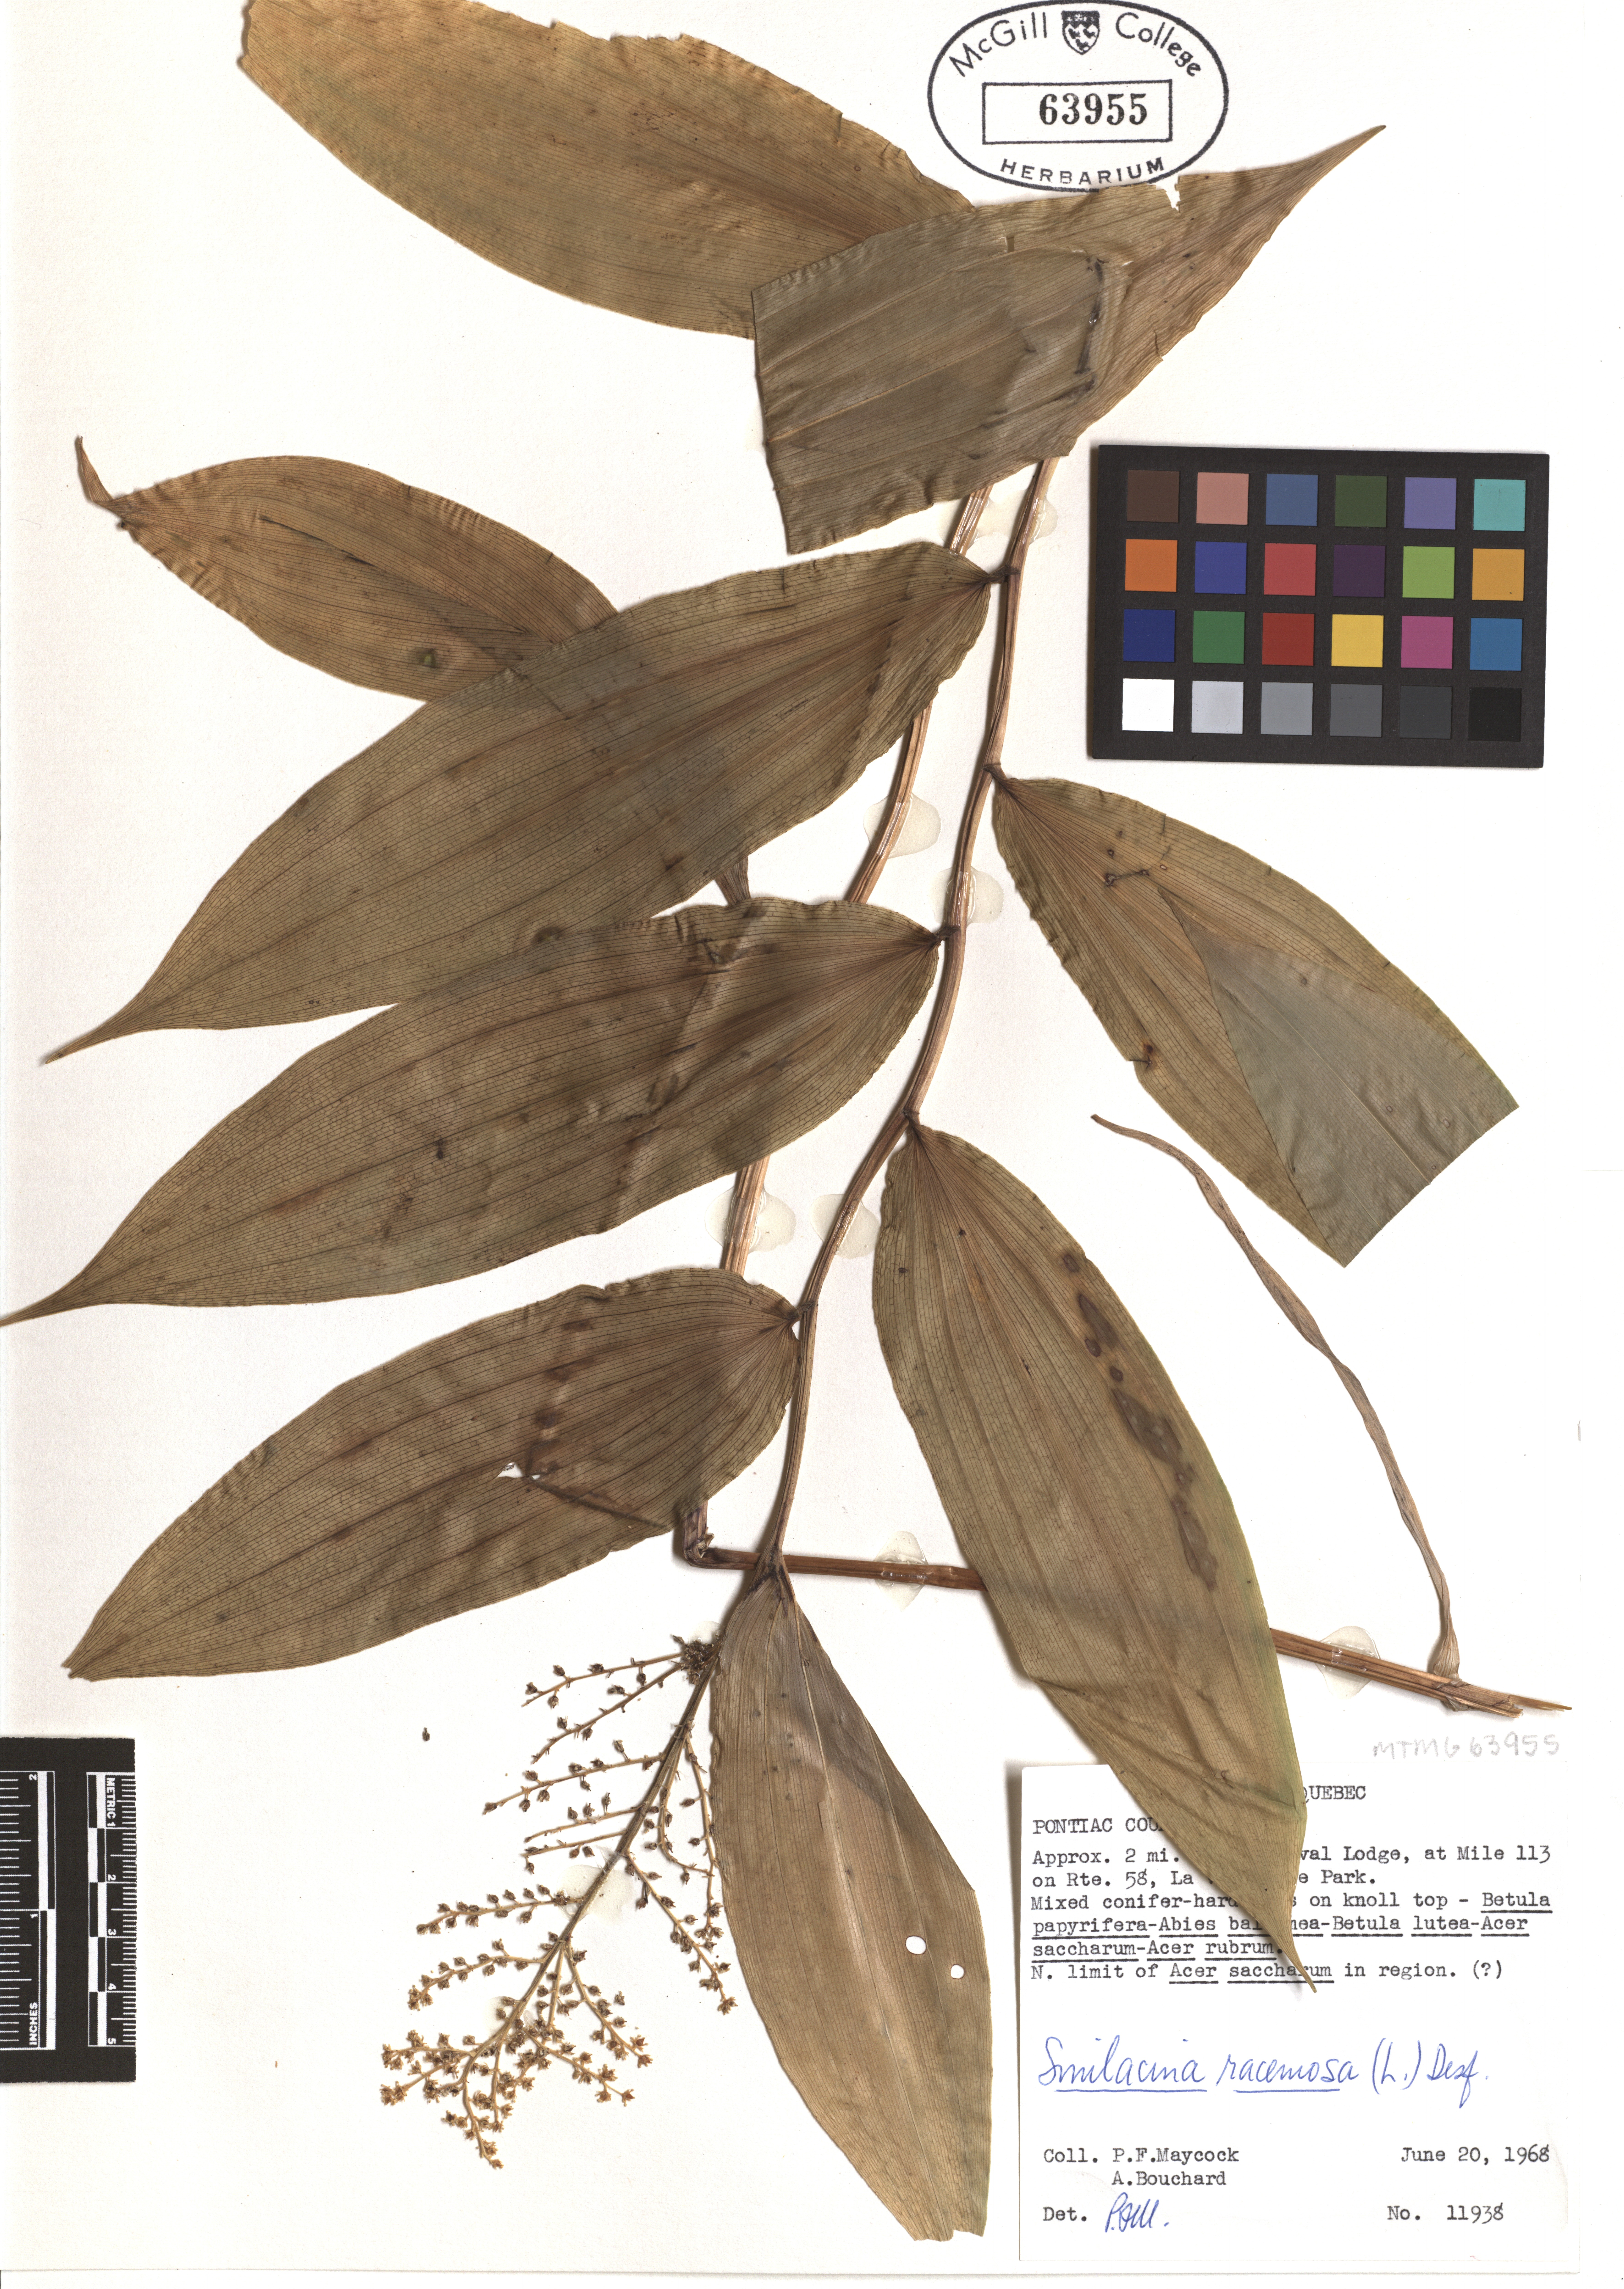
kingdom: Plantae
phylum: Tracheophyta
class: Liliopsida
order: Asparagales
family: Asparagaceae
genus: Maianthemum
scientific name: Maianthemum racemosum
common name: False spikenard
